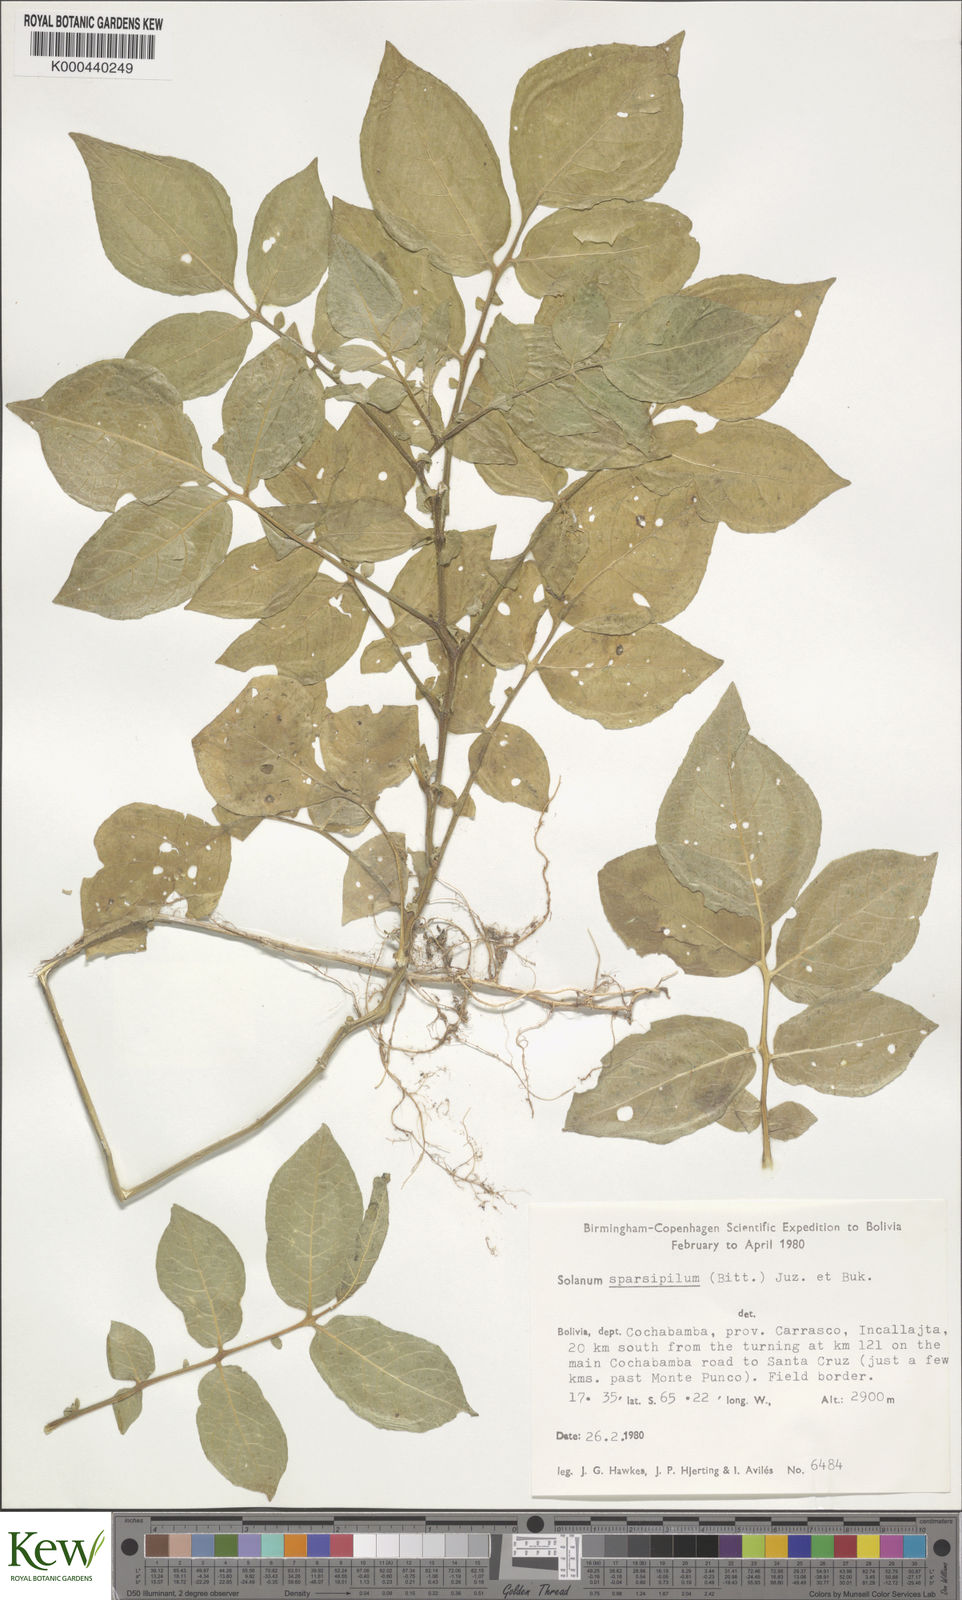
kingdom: Plantae
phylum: Tracheophyta
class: Magnoliopsida
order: Solanales
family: Solanaceae
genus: Solanum
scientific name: Solanum brevicaule
